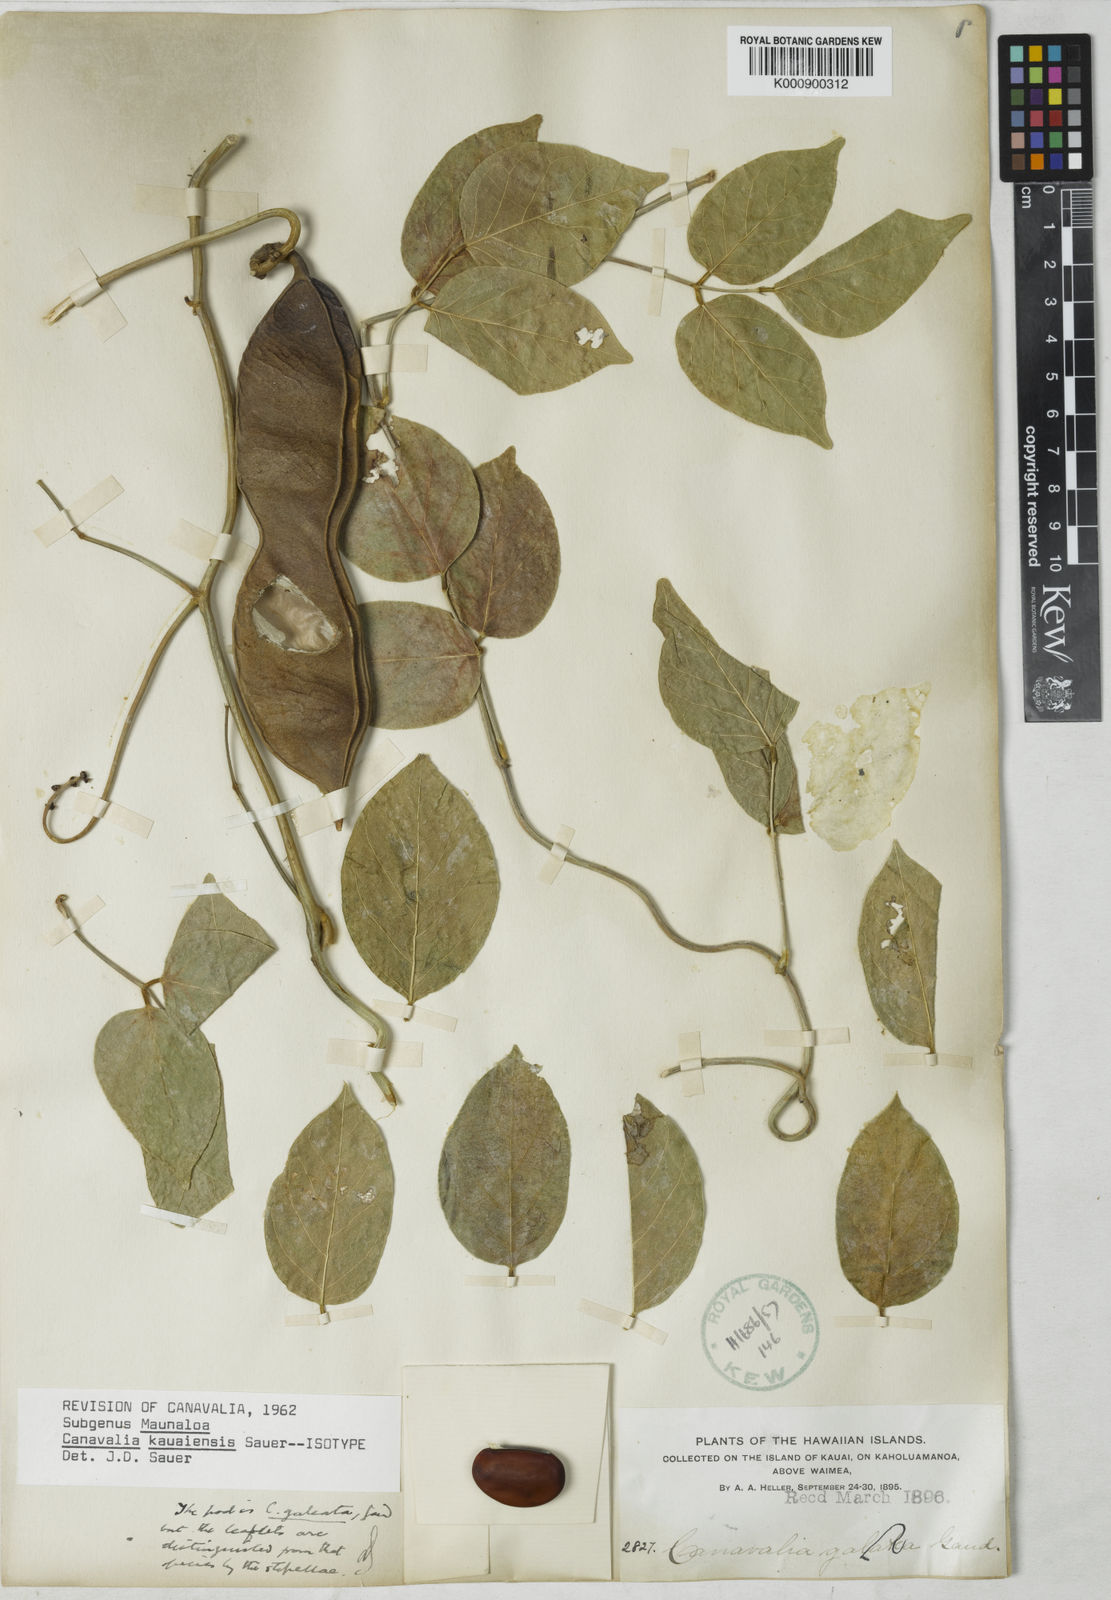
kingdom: Plantae
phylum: Tracheophyta
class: Magnoliopsida
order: Fabales
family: Fabaceae
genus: Canavalia
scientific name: Canavalia kauaiensis
